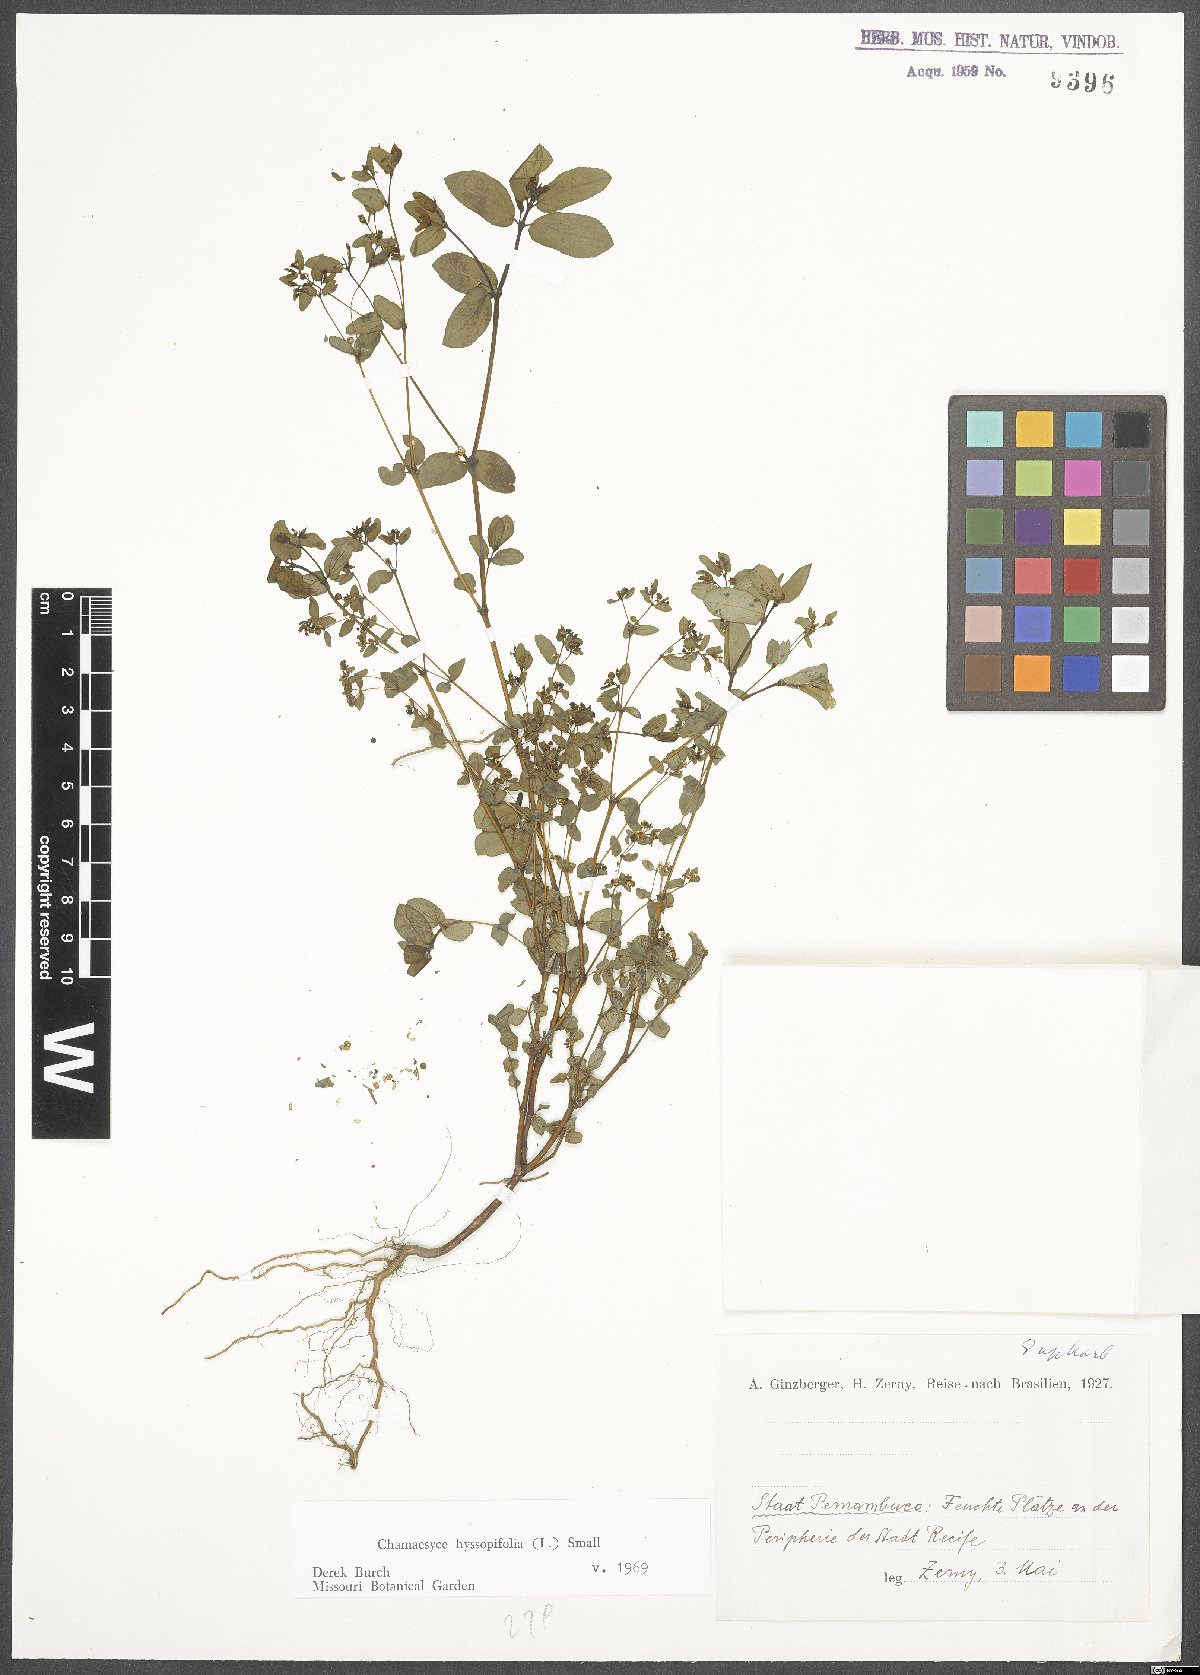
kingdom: Plantae
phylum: Tracheophyta
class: Magnoliopsida
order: Malpighiales
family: Euphorbiaceae
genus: Euphorbia
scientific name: Euphorbia hyssopifolia
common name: Hyssopleaf sandmat
